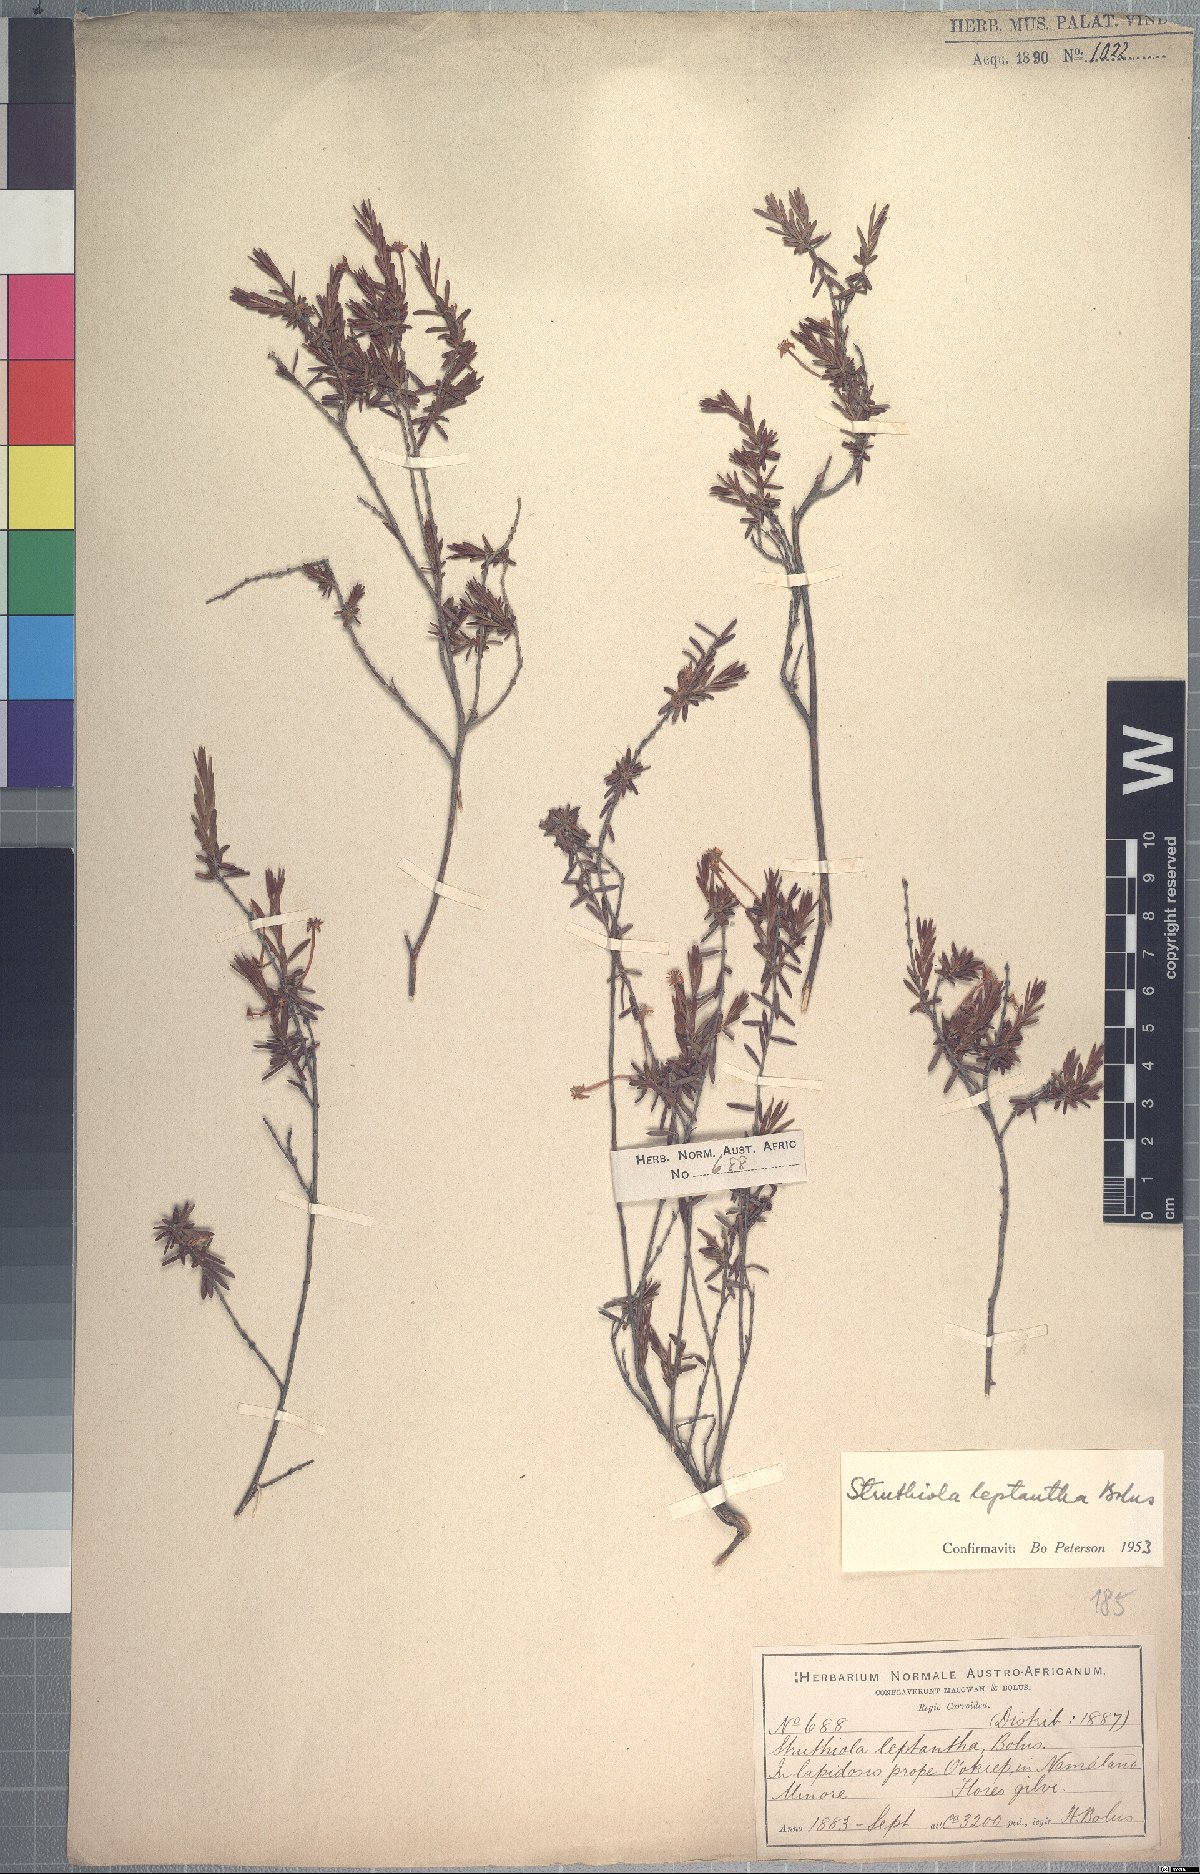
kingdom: Plantae
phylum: Tracheophyta
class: Magnoliopsida
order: Malvales
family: Thymelaeaceae
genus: Struthiola
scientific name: Struthiola leptantha
